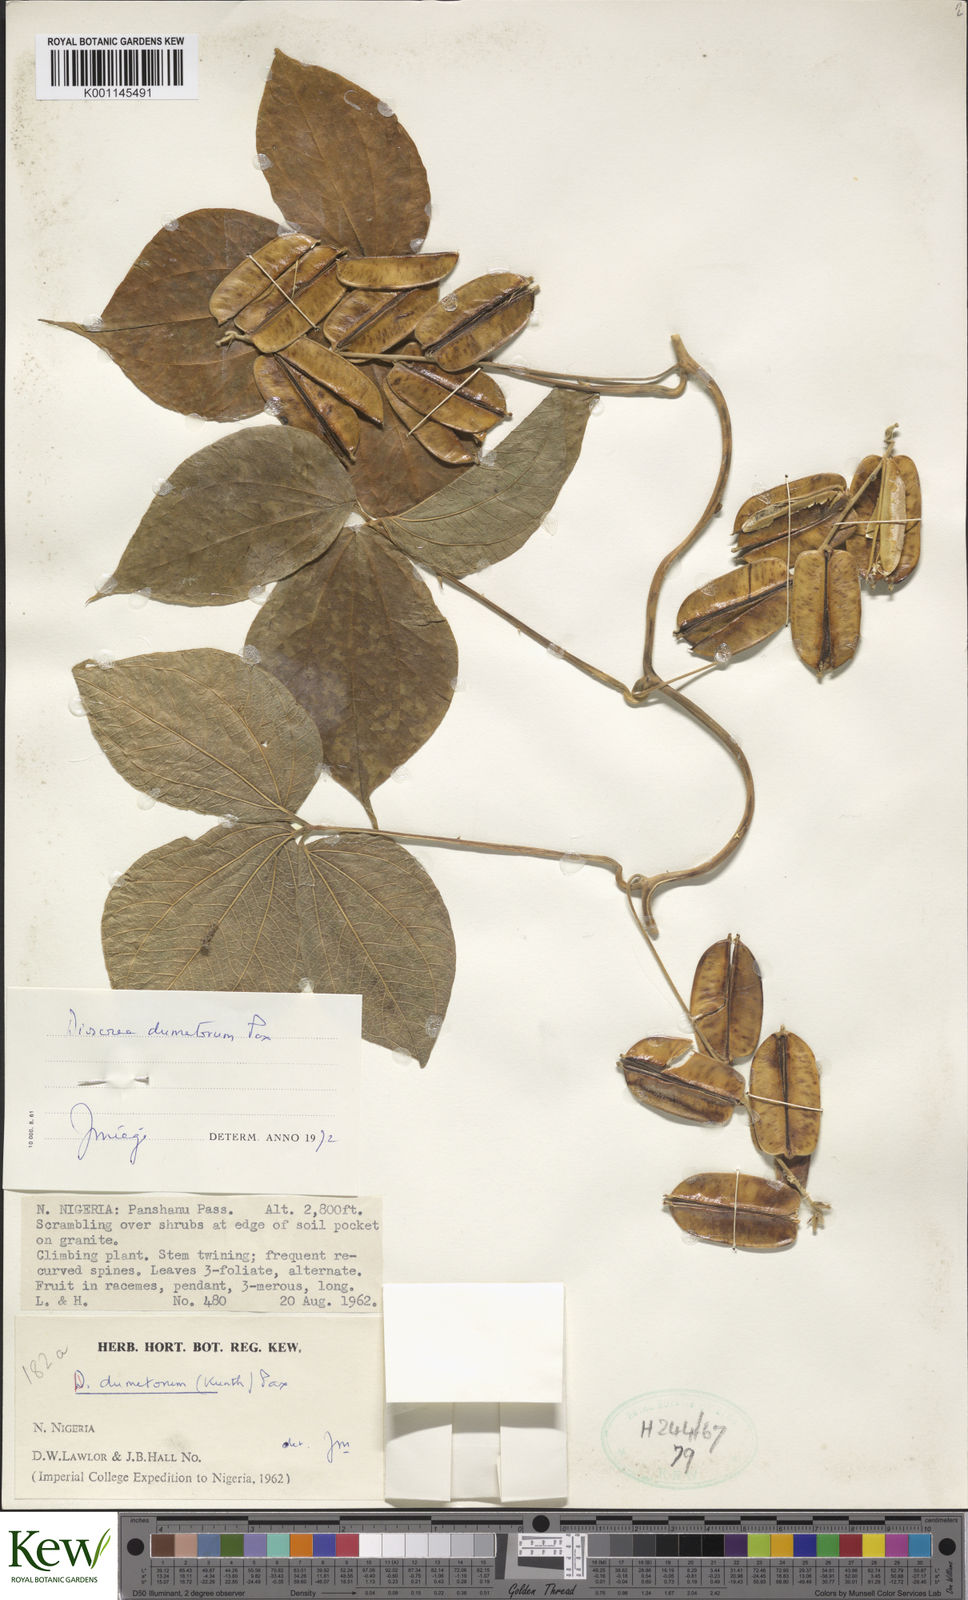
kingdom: Plantae
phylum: Tracheophyta
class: Liliopsida
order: Dioscoreales
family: Dioscoreaceae
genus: Dioscorea
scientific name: Dioscorea dumetorum
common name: African bitter yam
